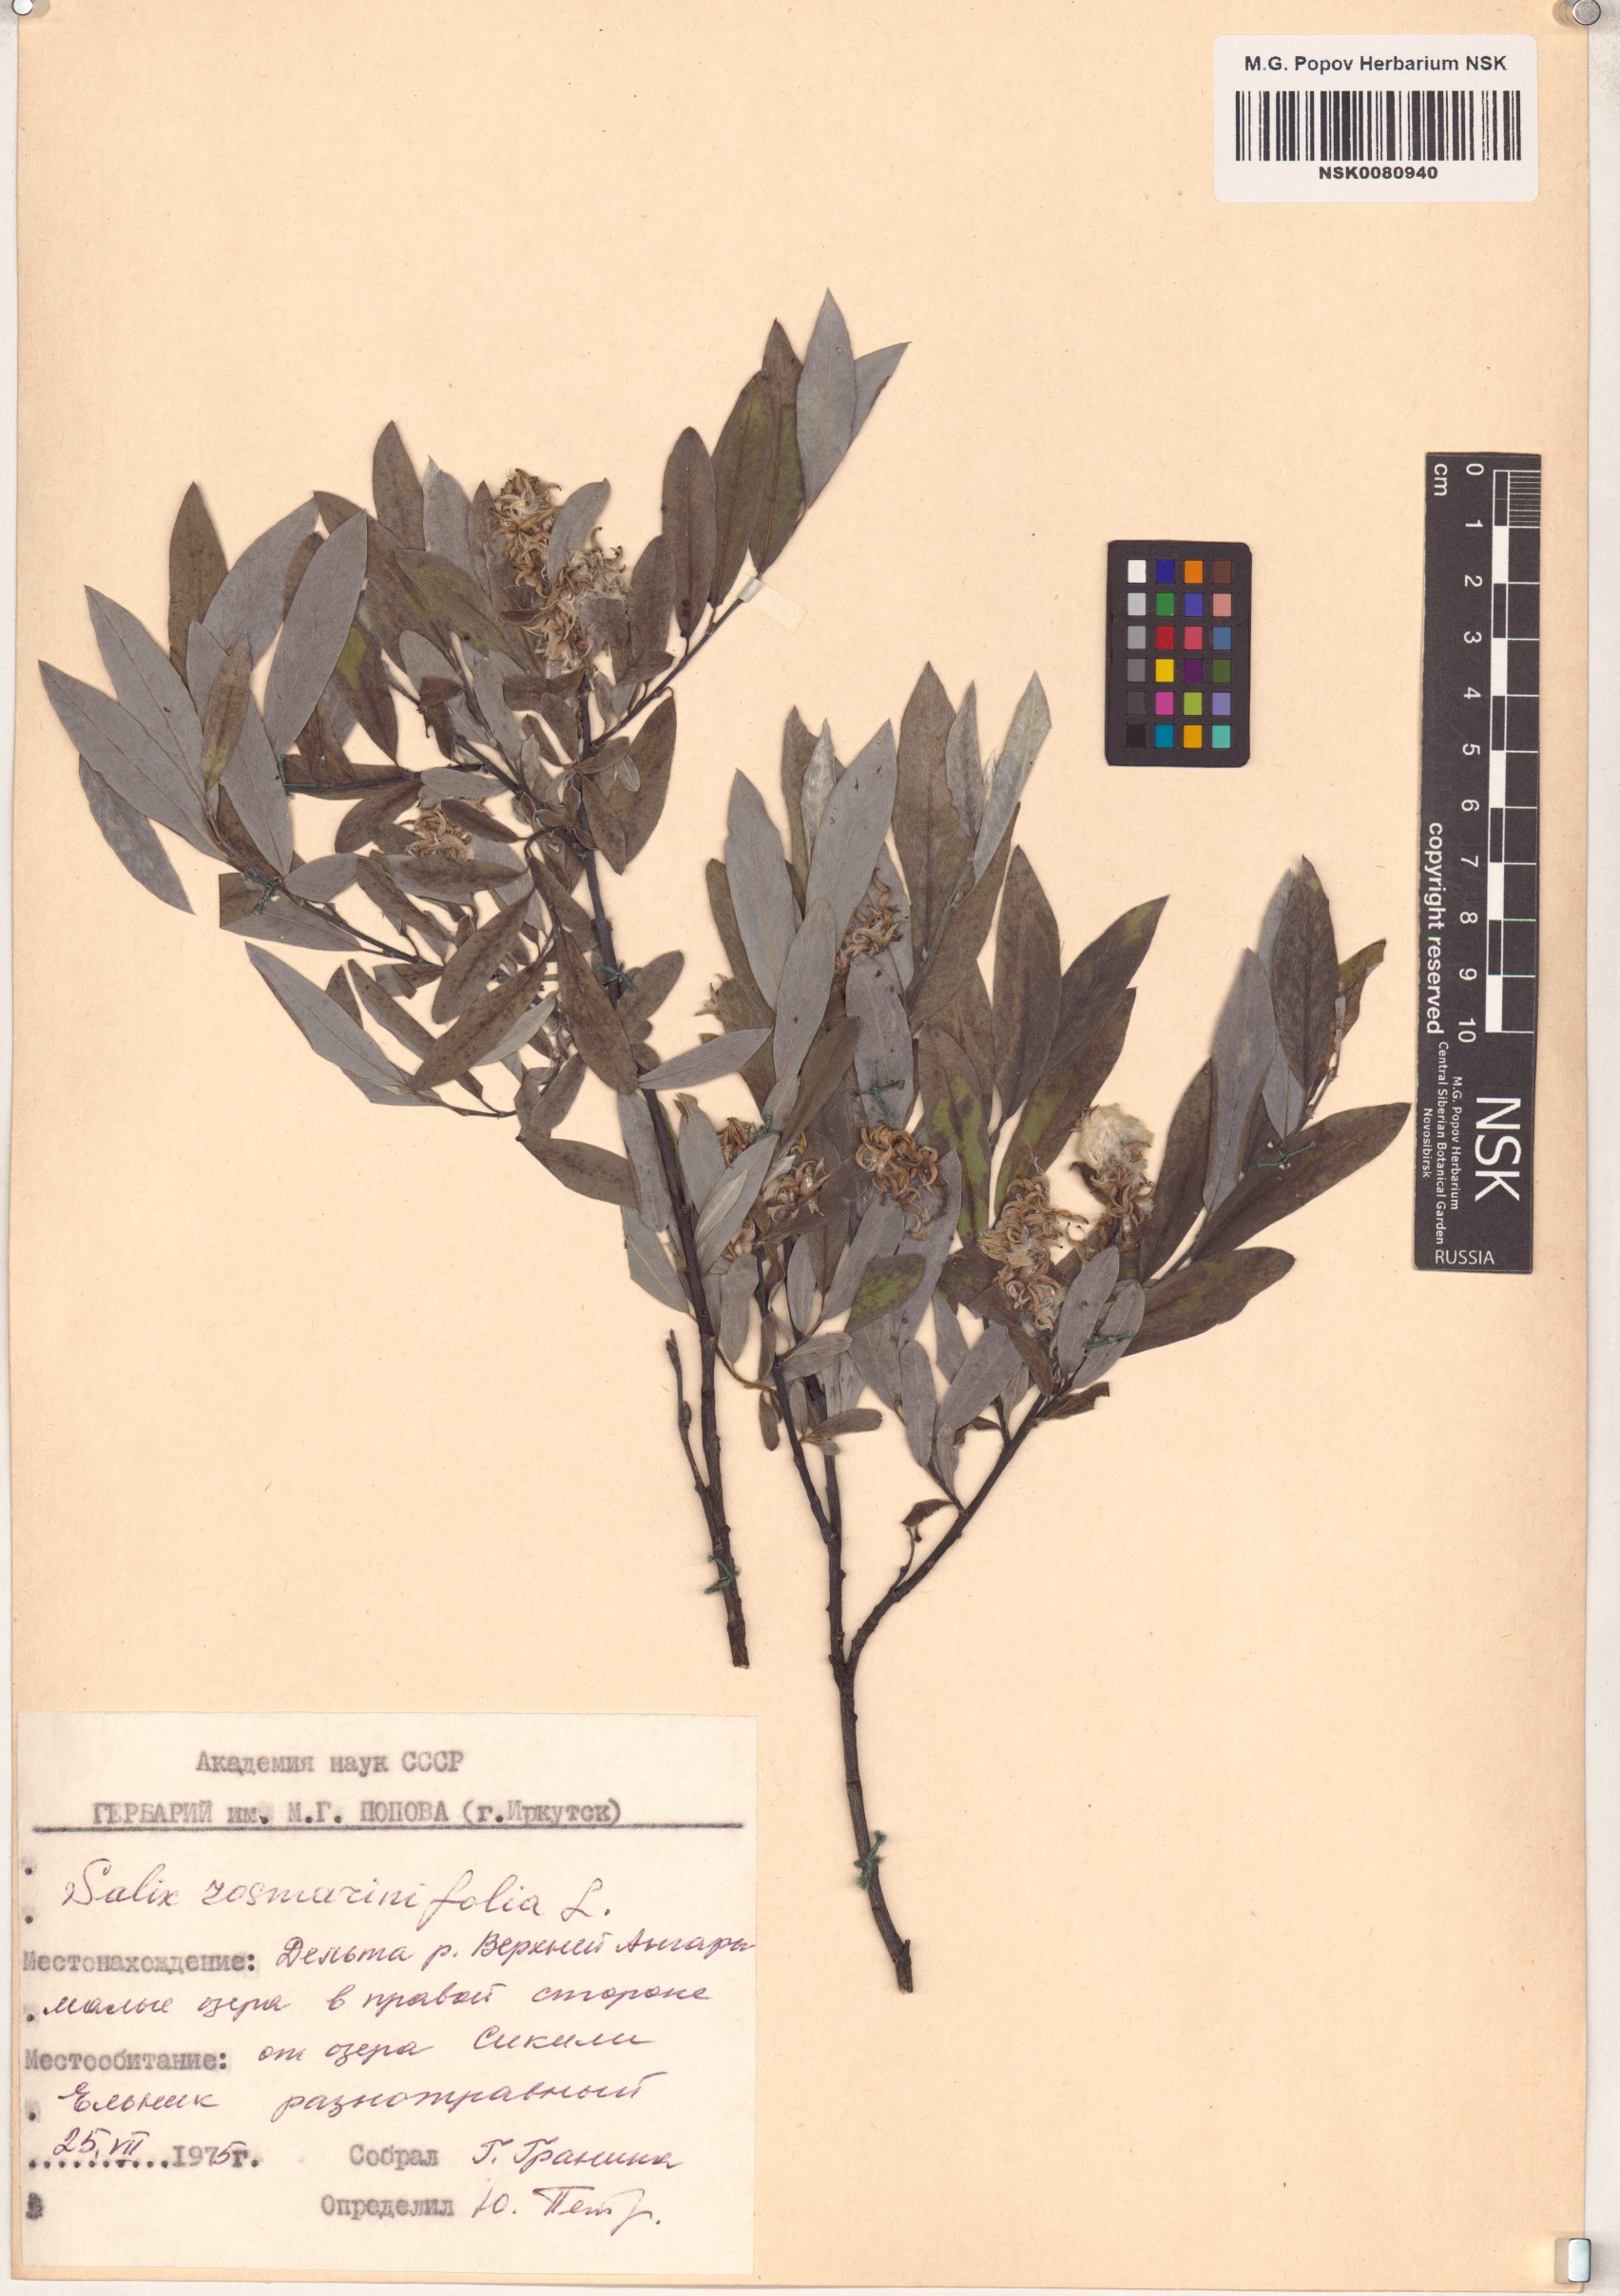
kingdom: Plantae
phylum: Tracheophyta
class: Magnoliopsida
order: Malpighiales
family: Salicaceae
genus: Salix
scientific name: Salix rosmarinifolia
